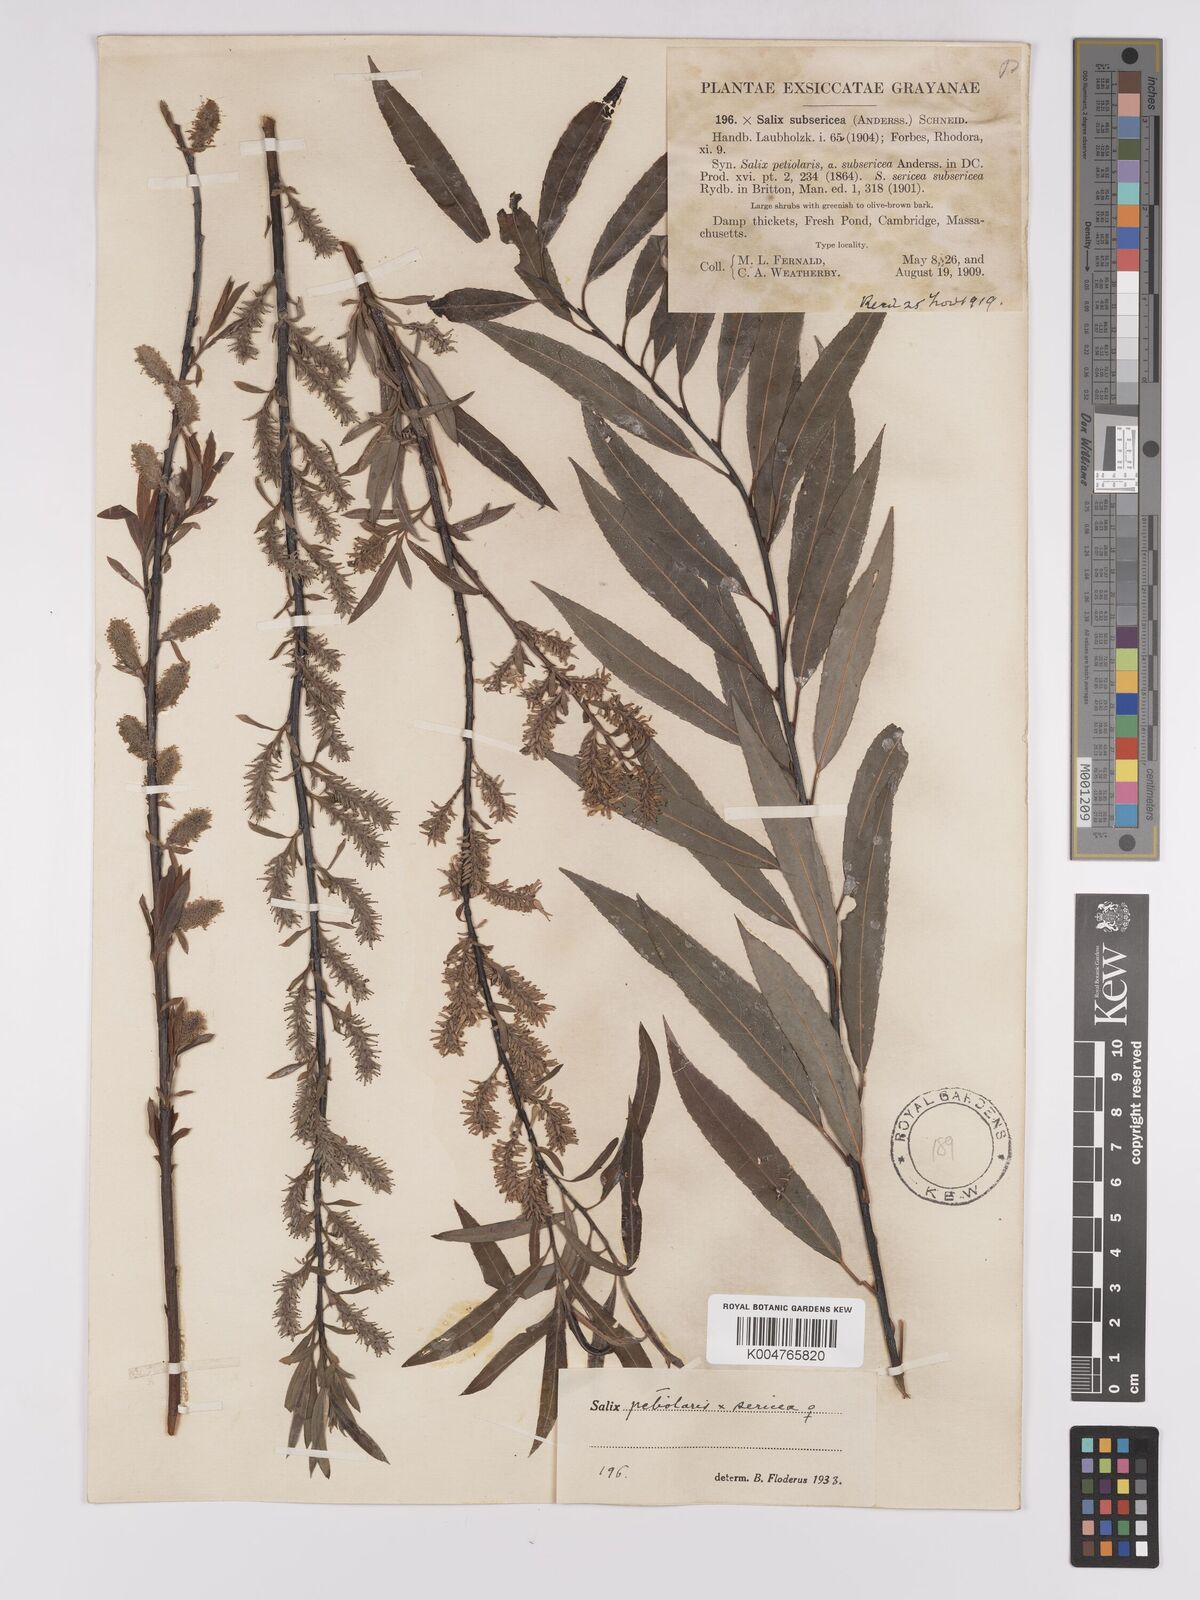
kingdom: Plantae
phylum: Tracheophyta
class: Magnoliopsida
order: Malpighiales
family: Salicaceae
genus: Salix
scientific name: Salix petiolaris
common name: Slender willow
